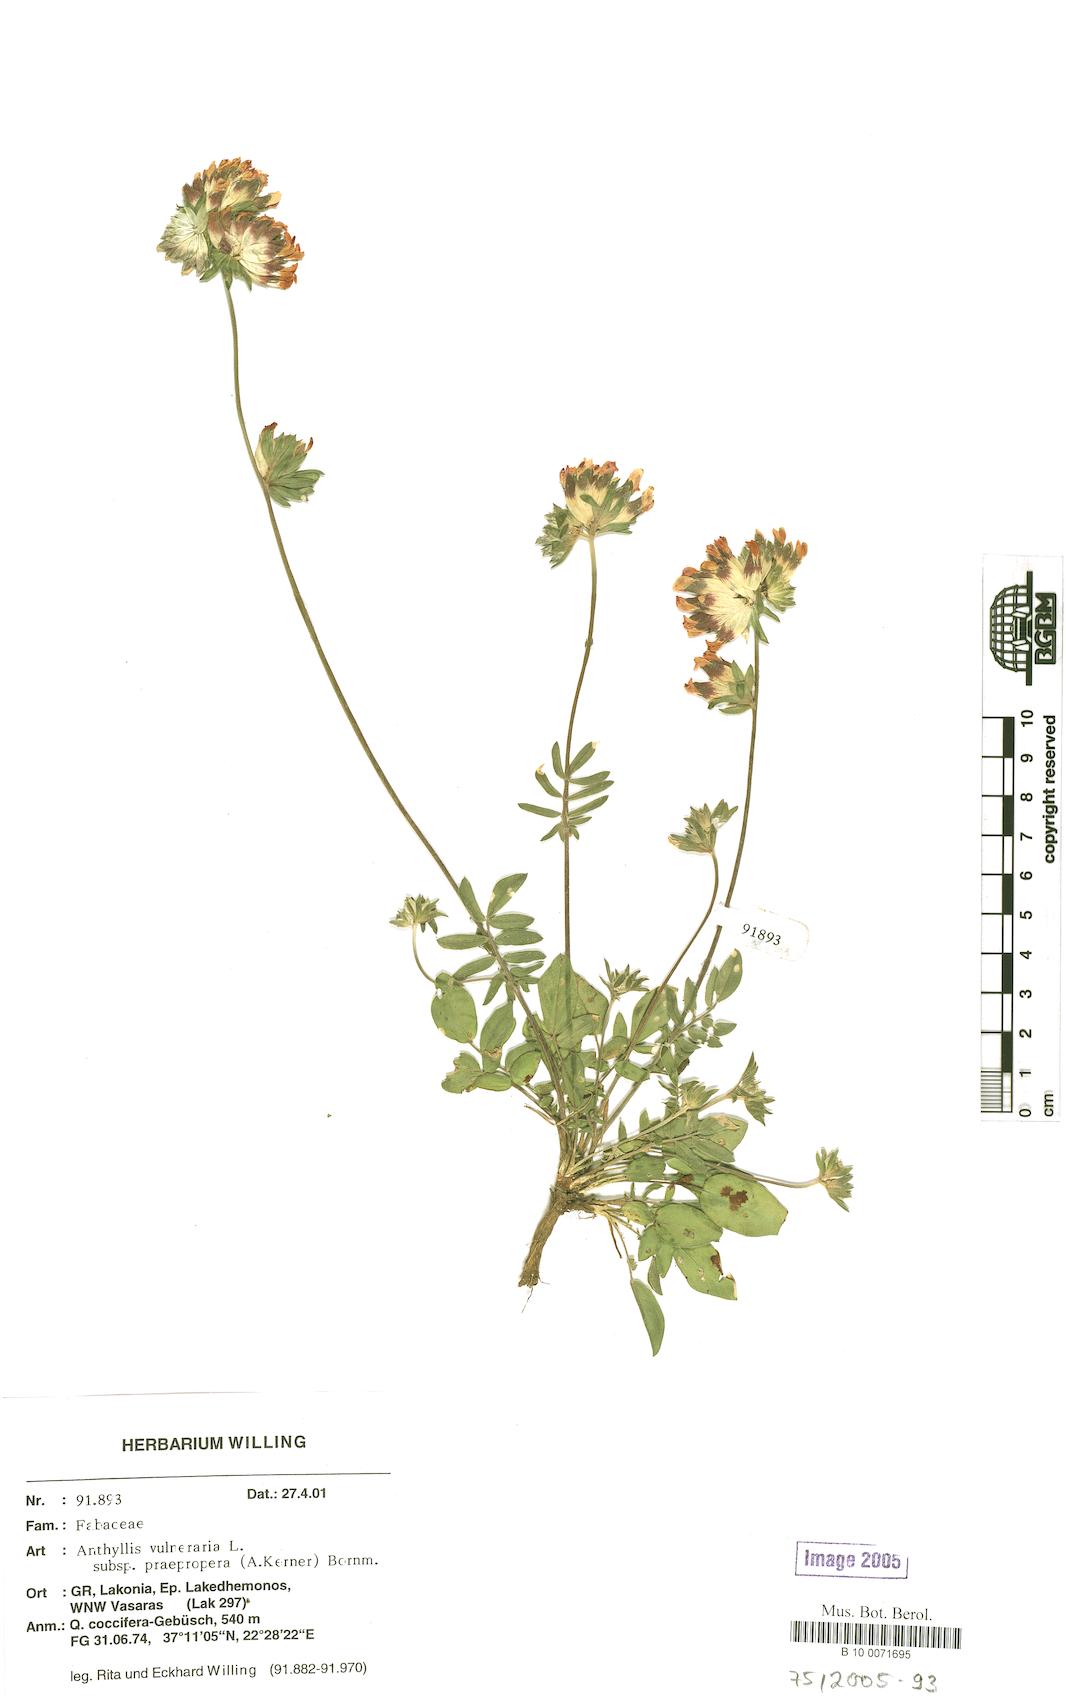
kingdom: Plantae
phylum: Tracheophyta
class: Magnoliopsida
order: Fabales
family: Fabaceae
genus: Anthyllis
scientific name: Anthyllis vulneraria
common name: Kidney vetch
